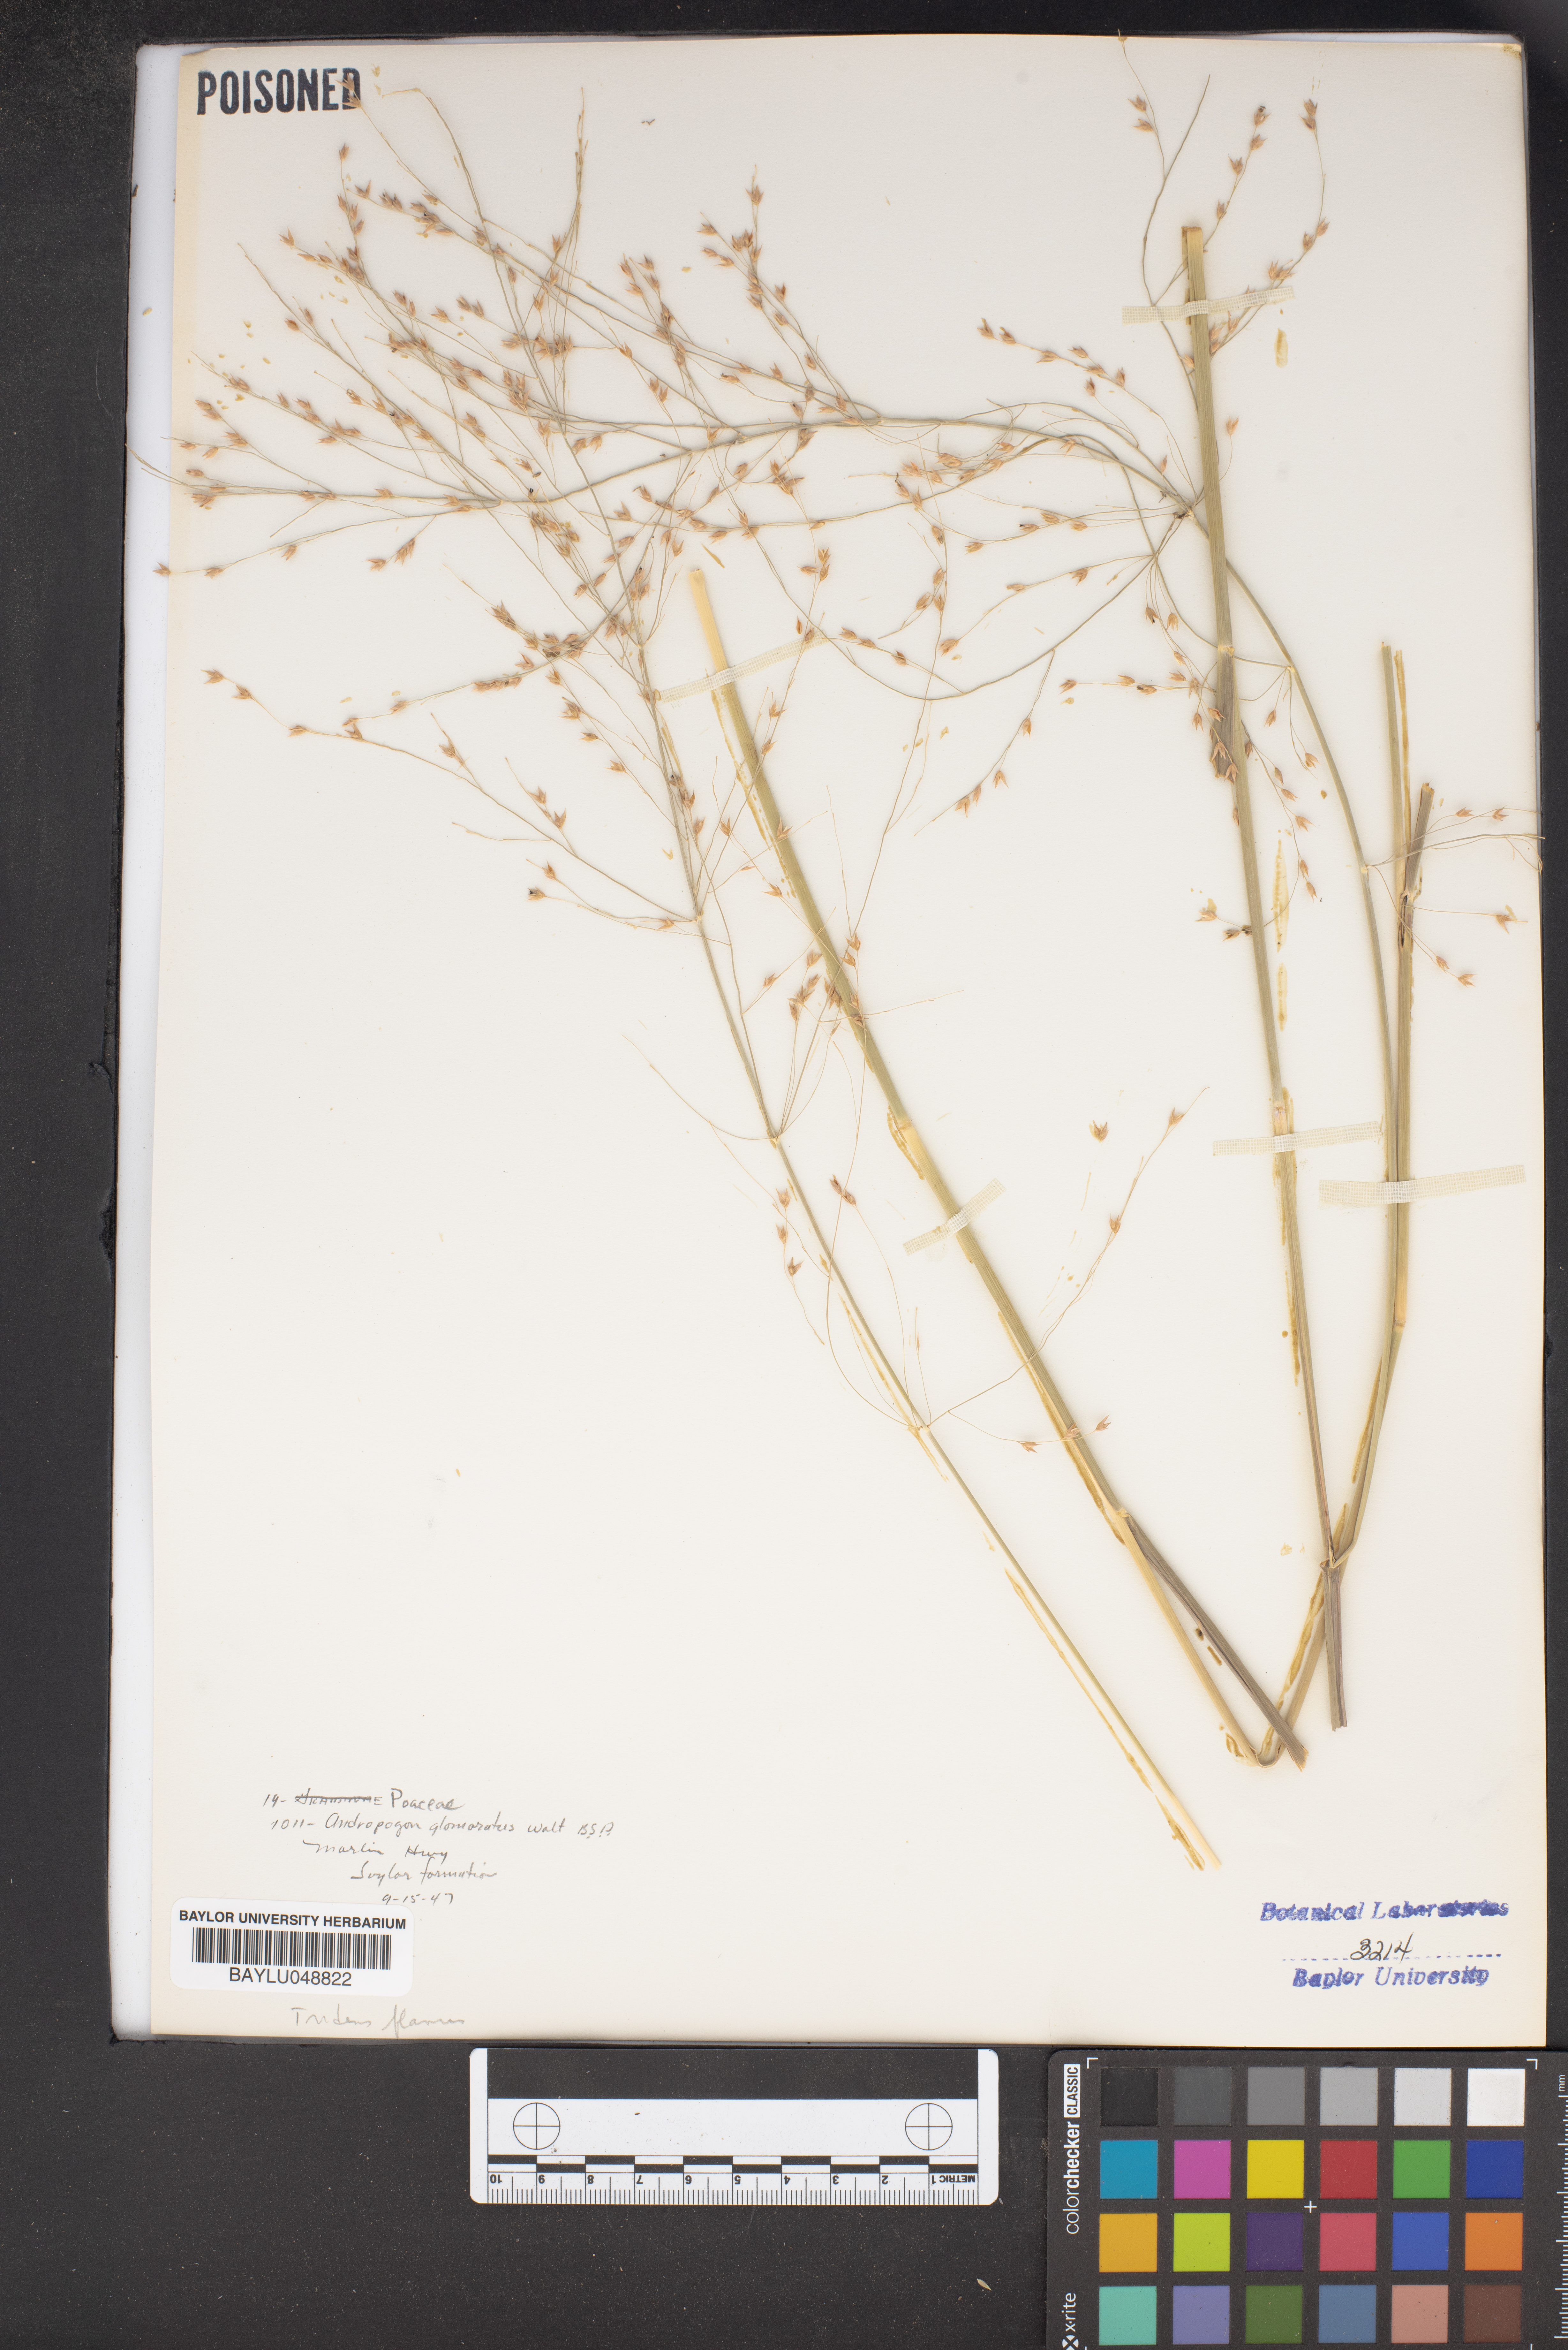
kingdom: Plantae
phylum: Tracheophyta
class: Liliopsida
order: Poales
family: Poaceae
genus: Andropogon
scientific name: Andropogon glomeratus
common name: Bushy beard grass
